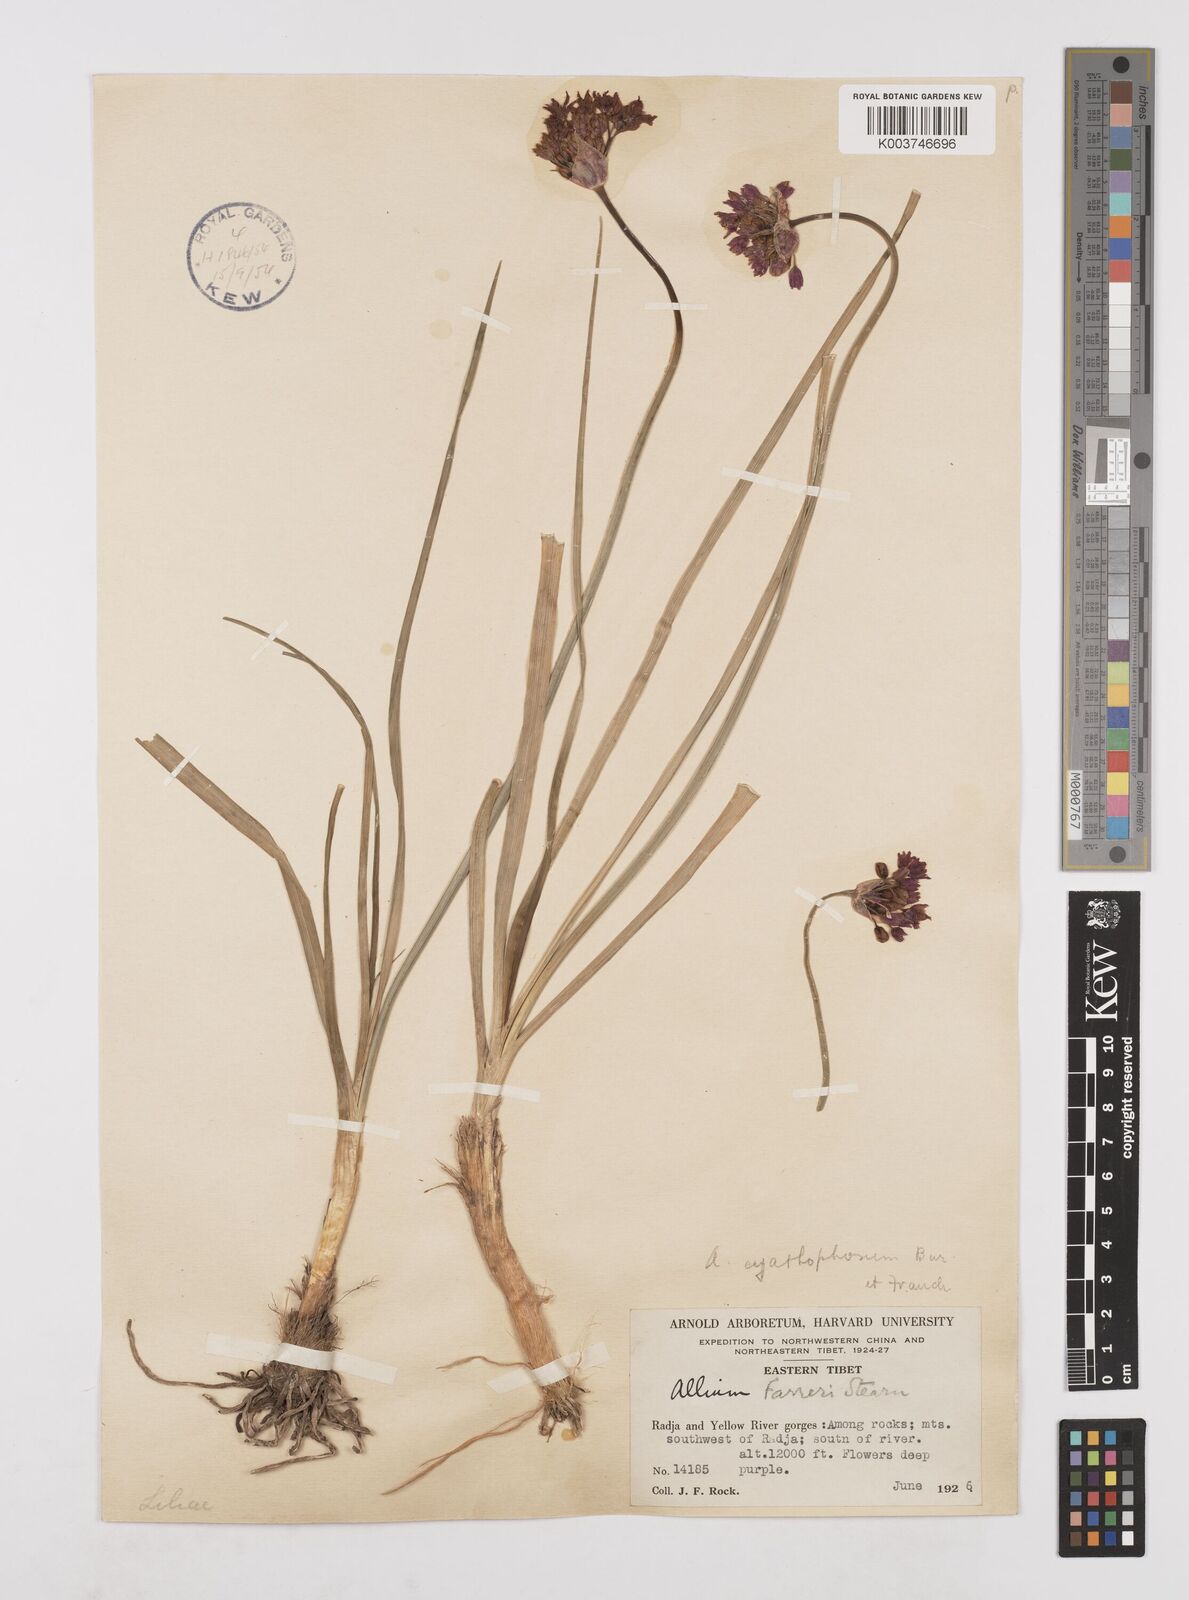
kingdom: Plantae
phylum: Tracheophyta
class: Liliopsida
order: Asparagales
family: Amaryllidaceae
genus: Allium
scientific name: Allium farreri
